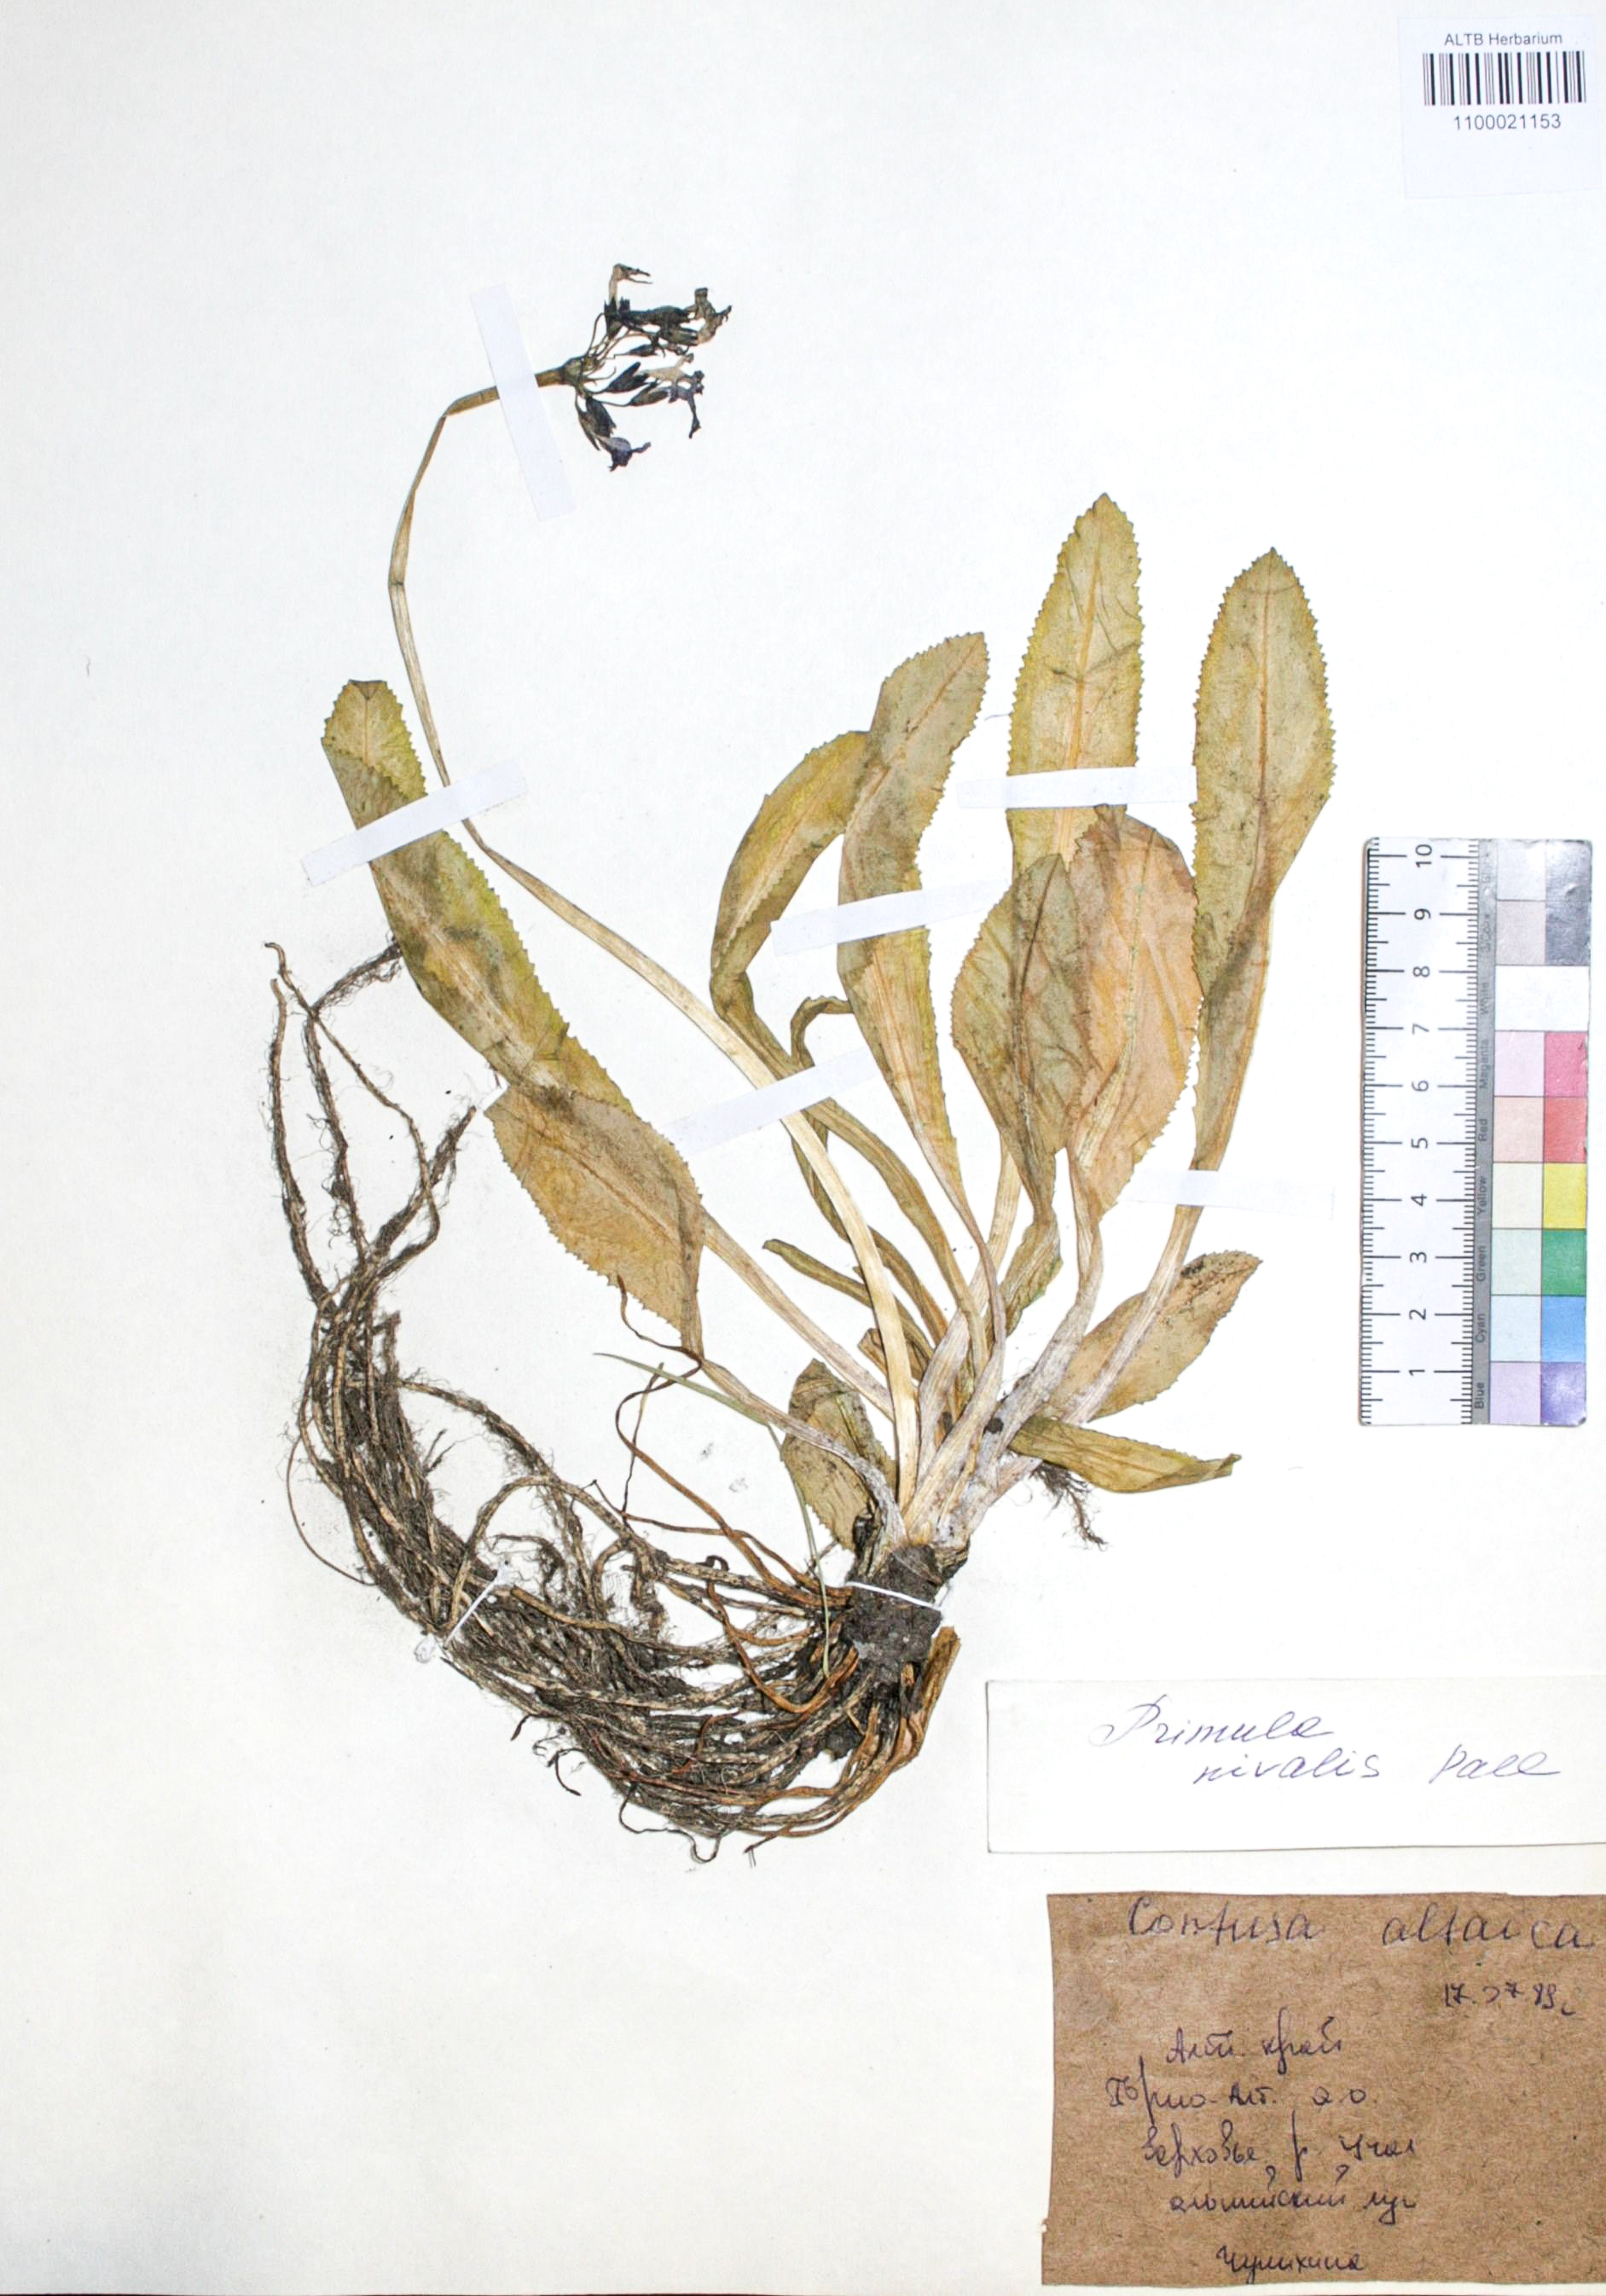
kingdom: Plantae
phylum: Tracheophyta
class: Magnoliopsida
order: Ericales
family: Primulaceae
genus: Primula
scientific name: Primula nivalis
